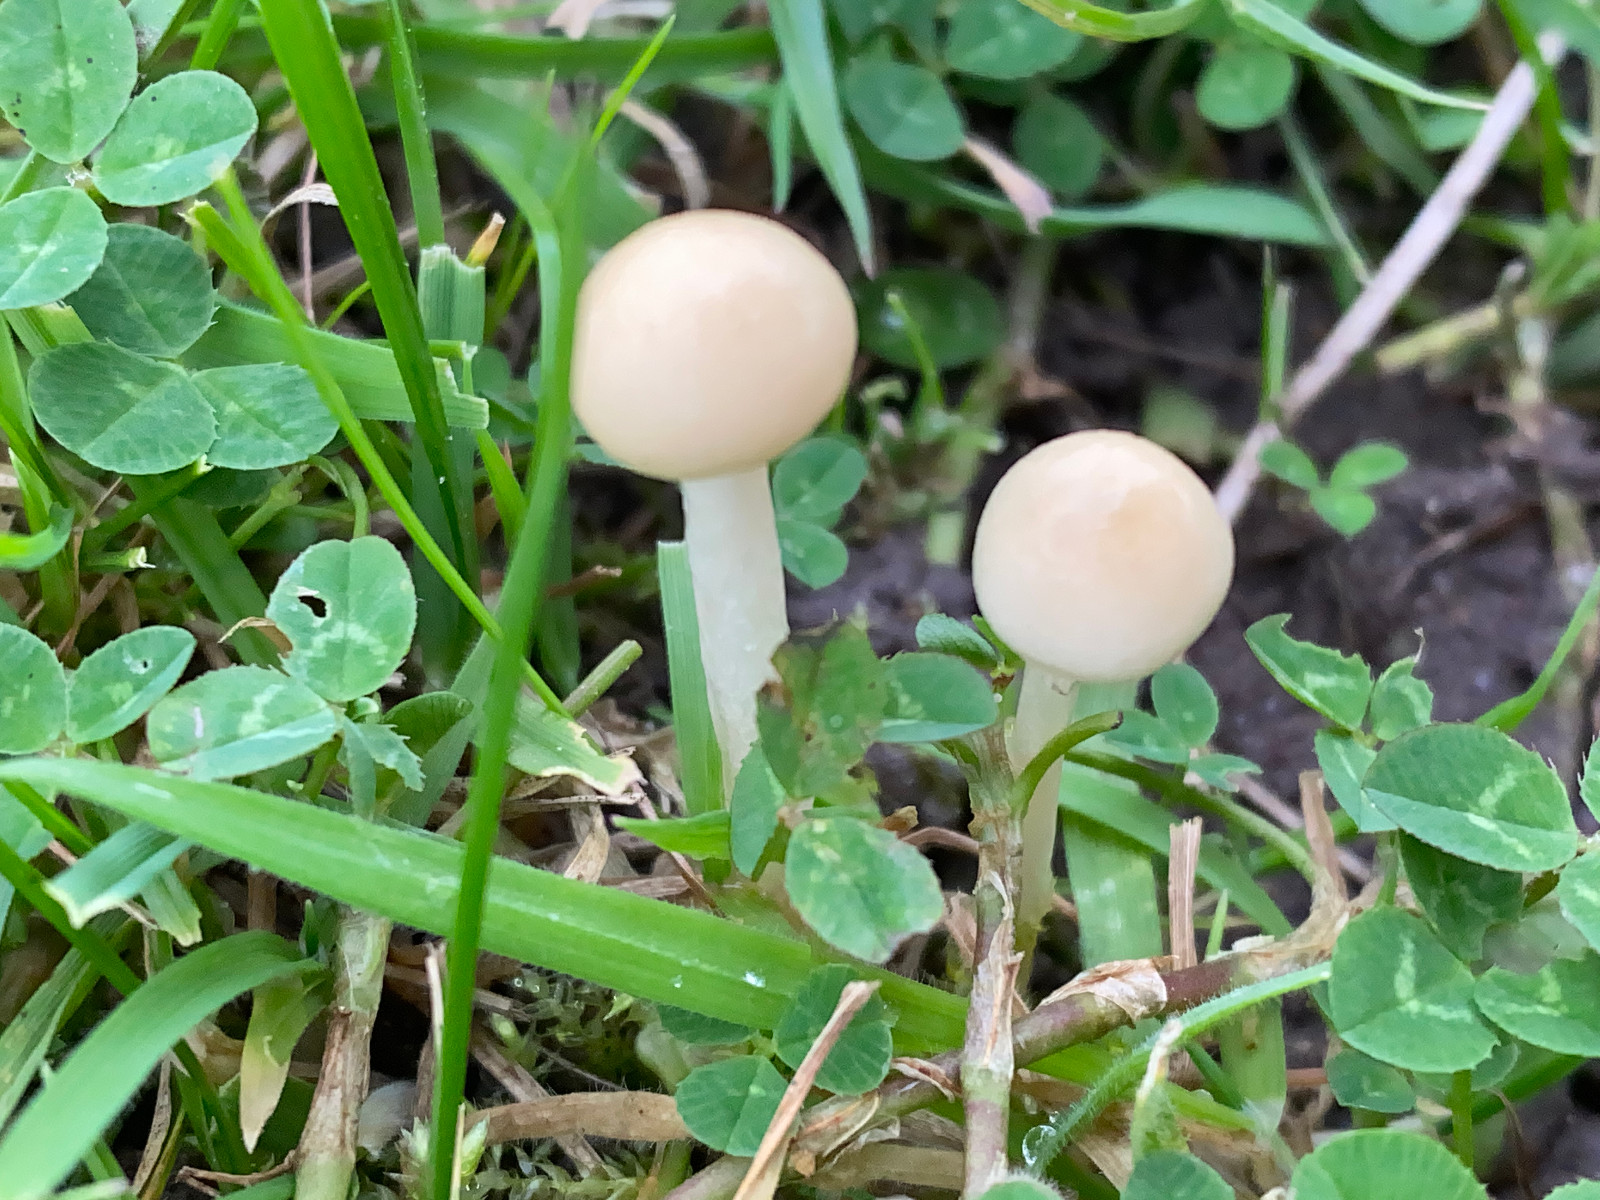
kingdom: Fungi
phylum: Basidiomycota
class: Agaricomycetes
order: Agaricales
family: Hygrophoraceae
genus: Cuphophyllus
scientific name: Cuphophyllus virgineus
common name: snehvid vokshat
